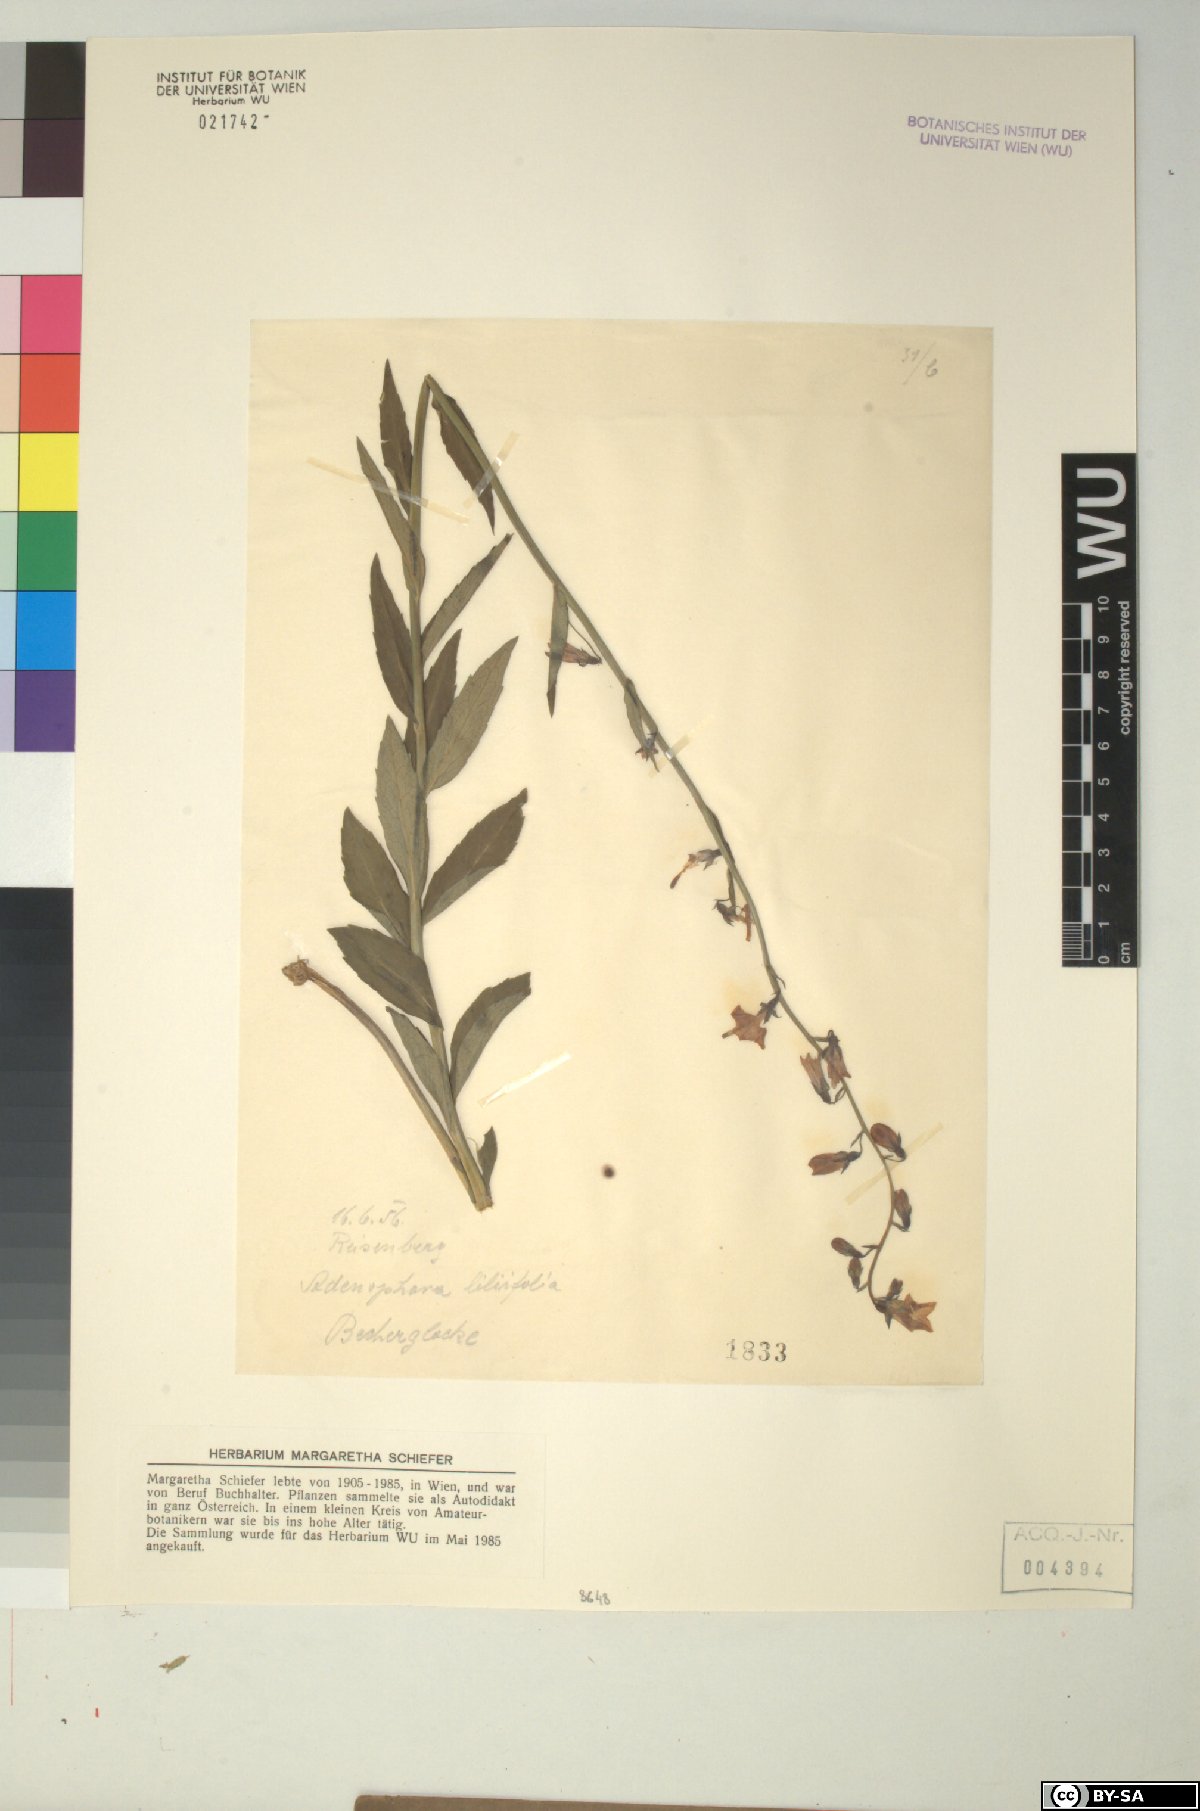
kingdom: Plantae
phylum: Tracheophyta
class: Magnoliopsida
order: Asterales
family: Campanulaceae
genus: Adenophora
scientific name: Adenophora liliifolia
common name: Lilyleaf ladybells
